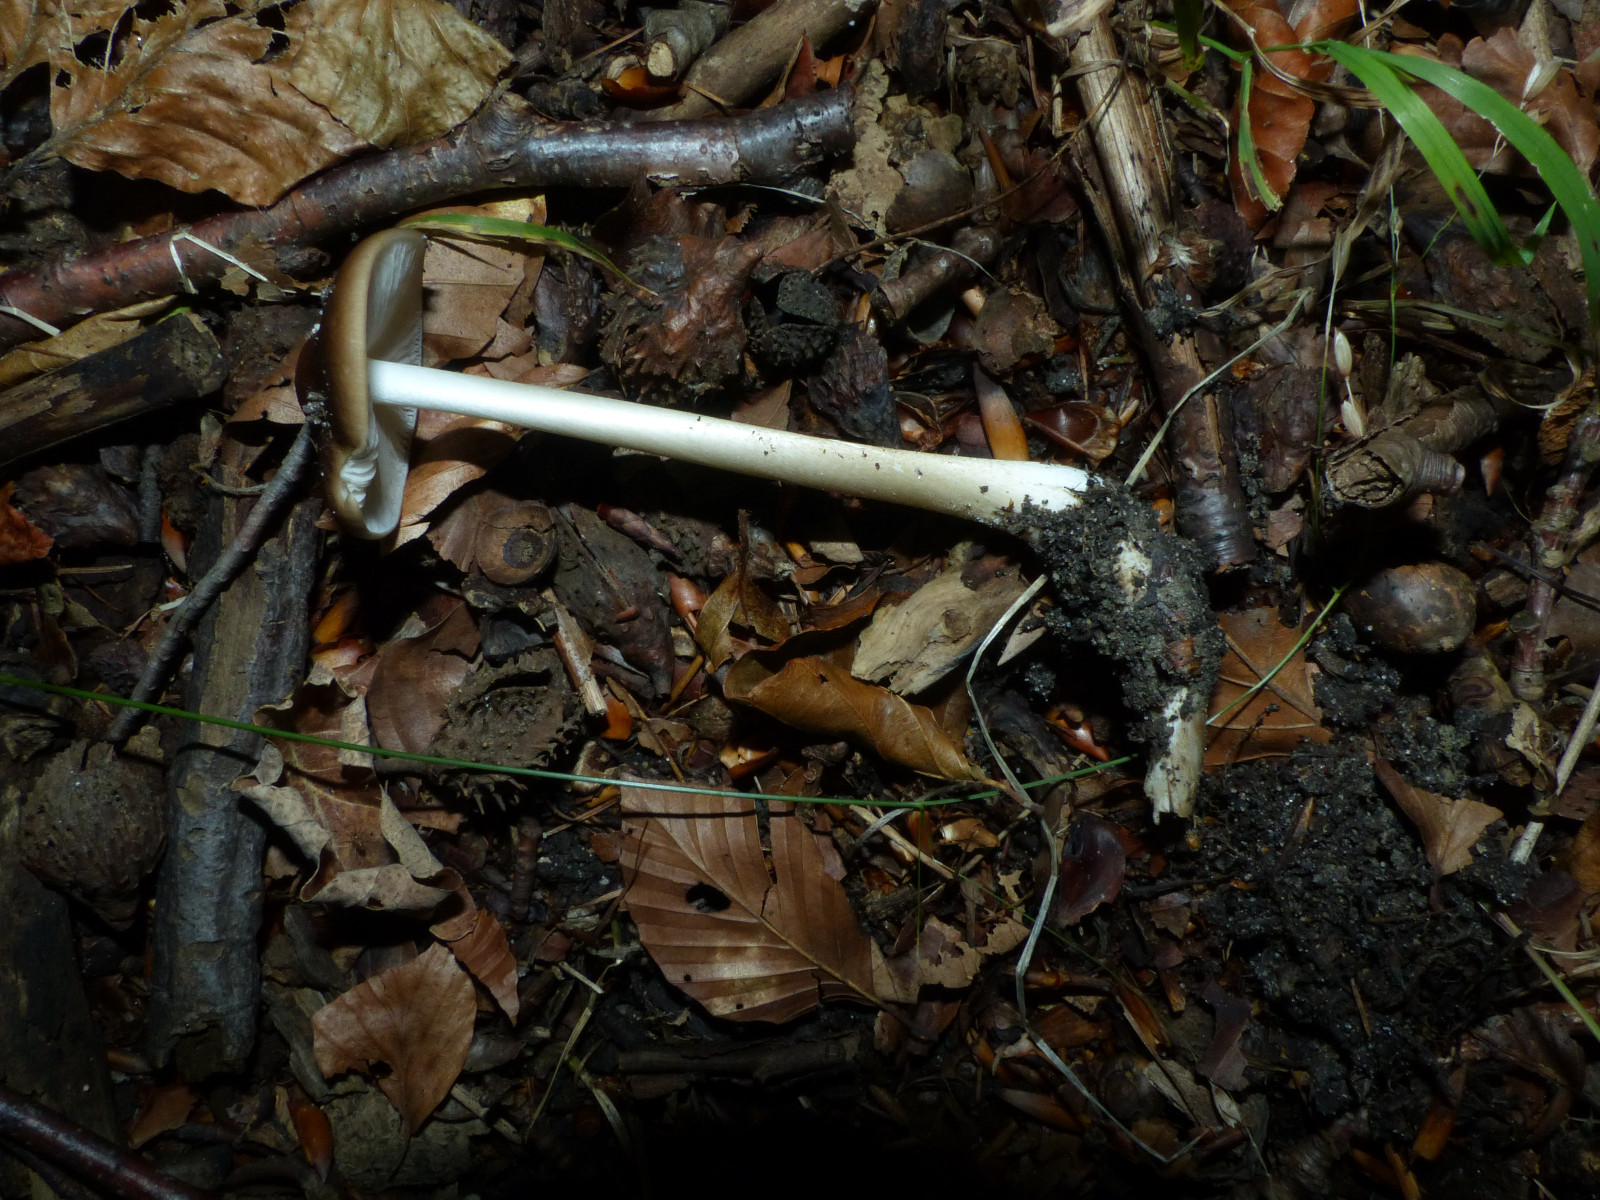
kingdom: Fungi
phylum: Basidiomycota
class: Agaricomycetes
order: Agaricales
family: Physalacriaceae
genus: Hymenopellis
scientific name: Hymenopellis radicata
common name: almindelig pælerodshat
